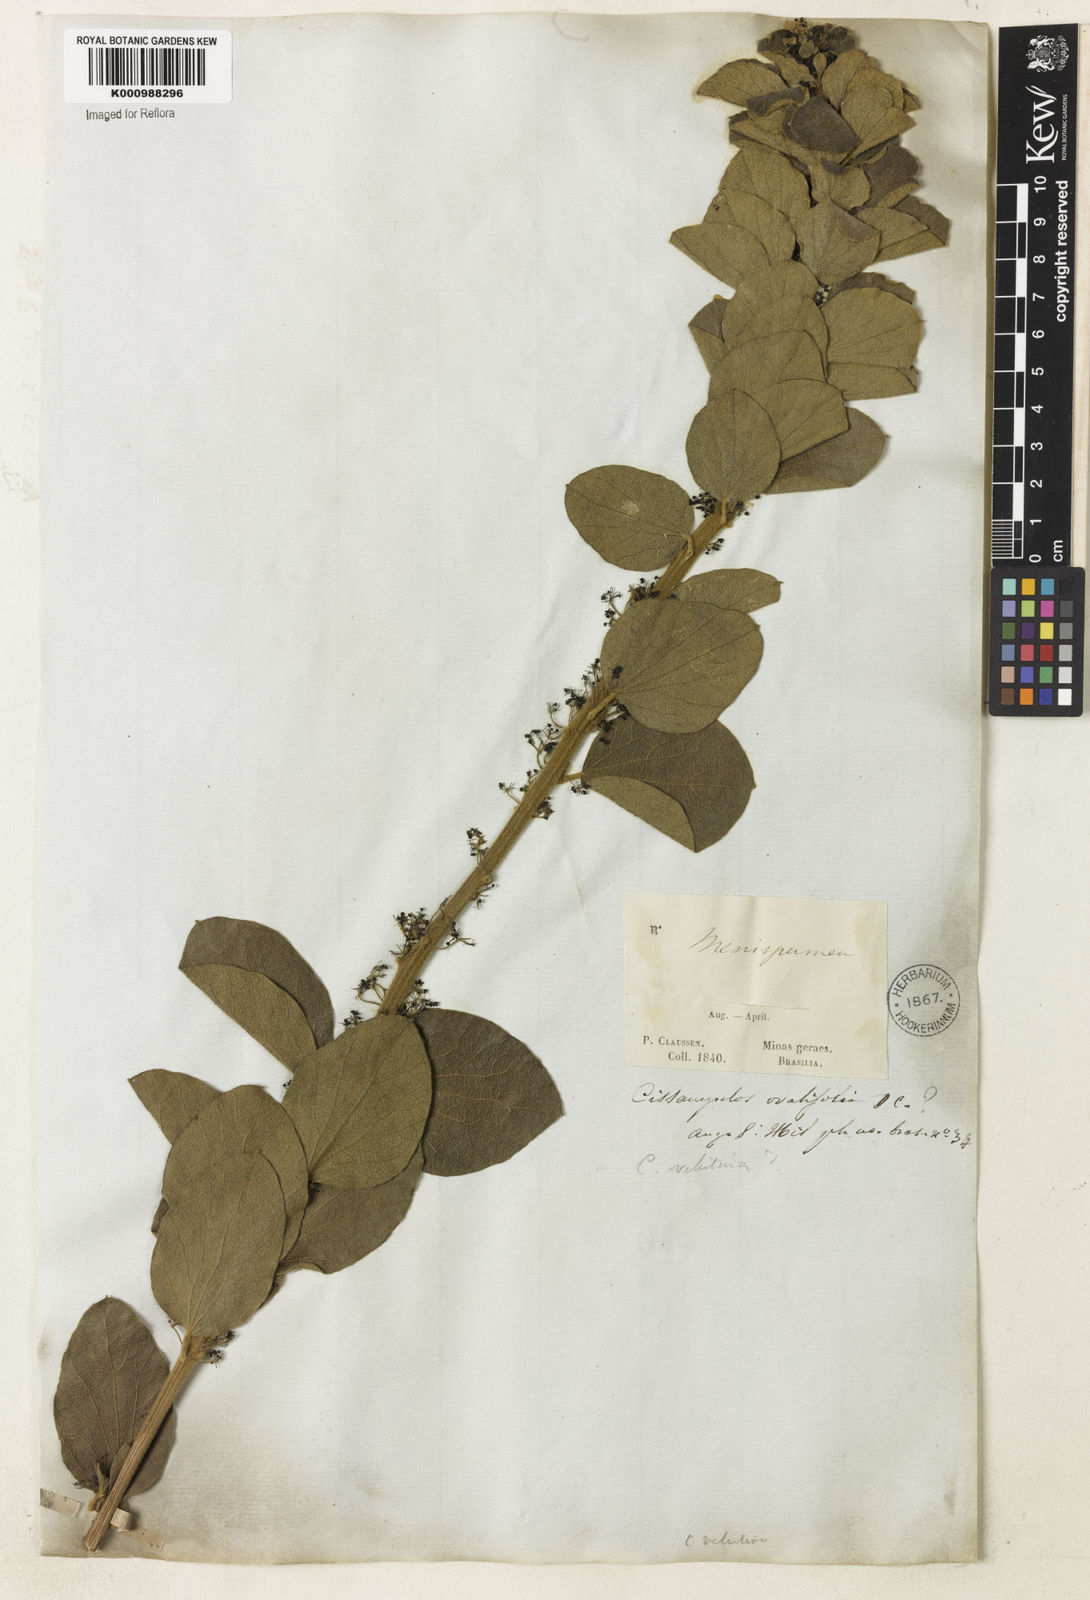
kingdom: Plantae
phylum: Tracheophyta
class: Magnoliopsida
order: Ranunculales
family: Menispermaceae
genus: Cissampelos
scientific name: Cissampelos ovalifolia
